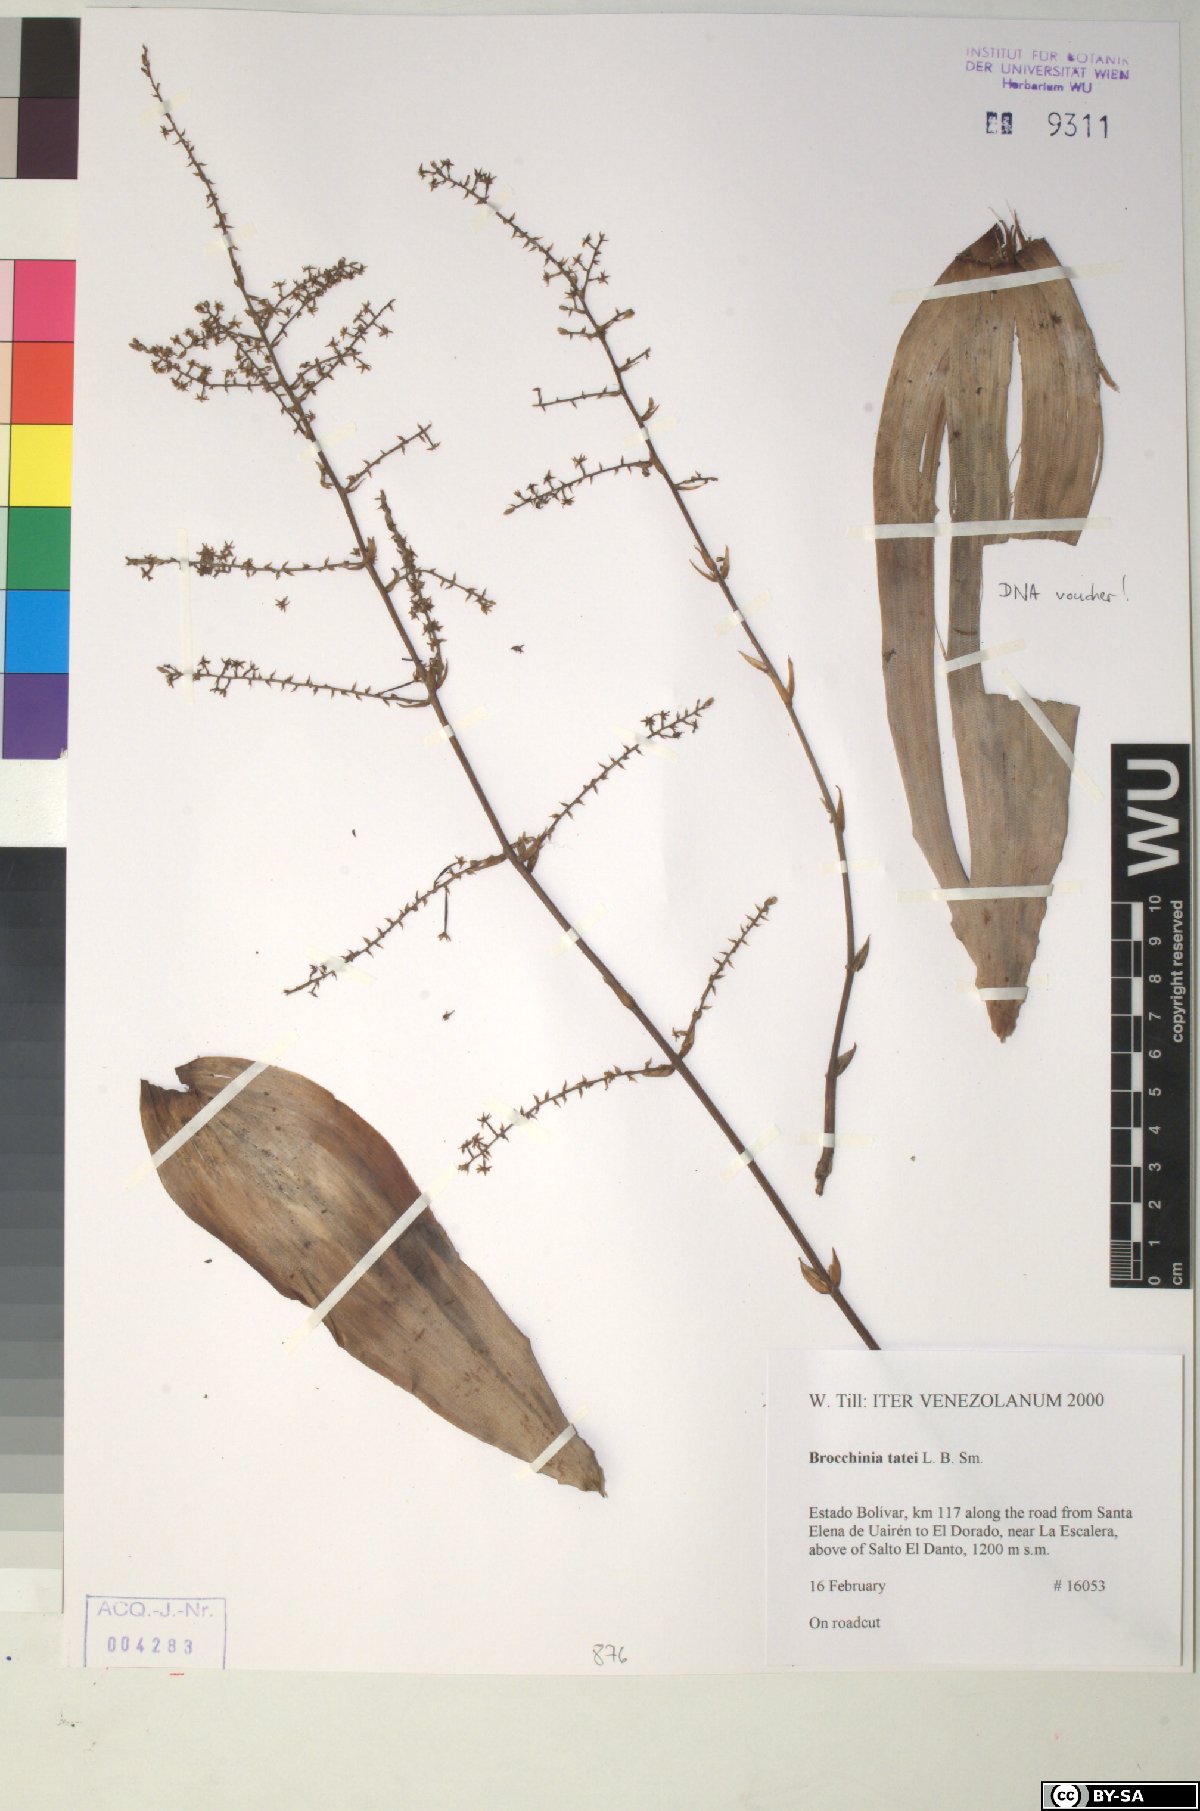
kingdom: Plantae
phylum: Tracheophyta
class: Liliopsida
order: Poales
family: Bromeliaceae
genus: Brocchinia
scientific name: Brocchinia tatei
